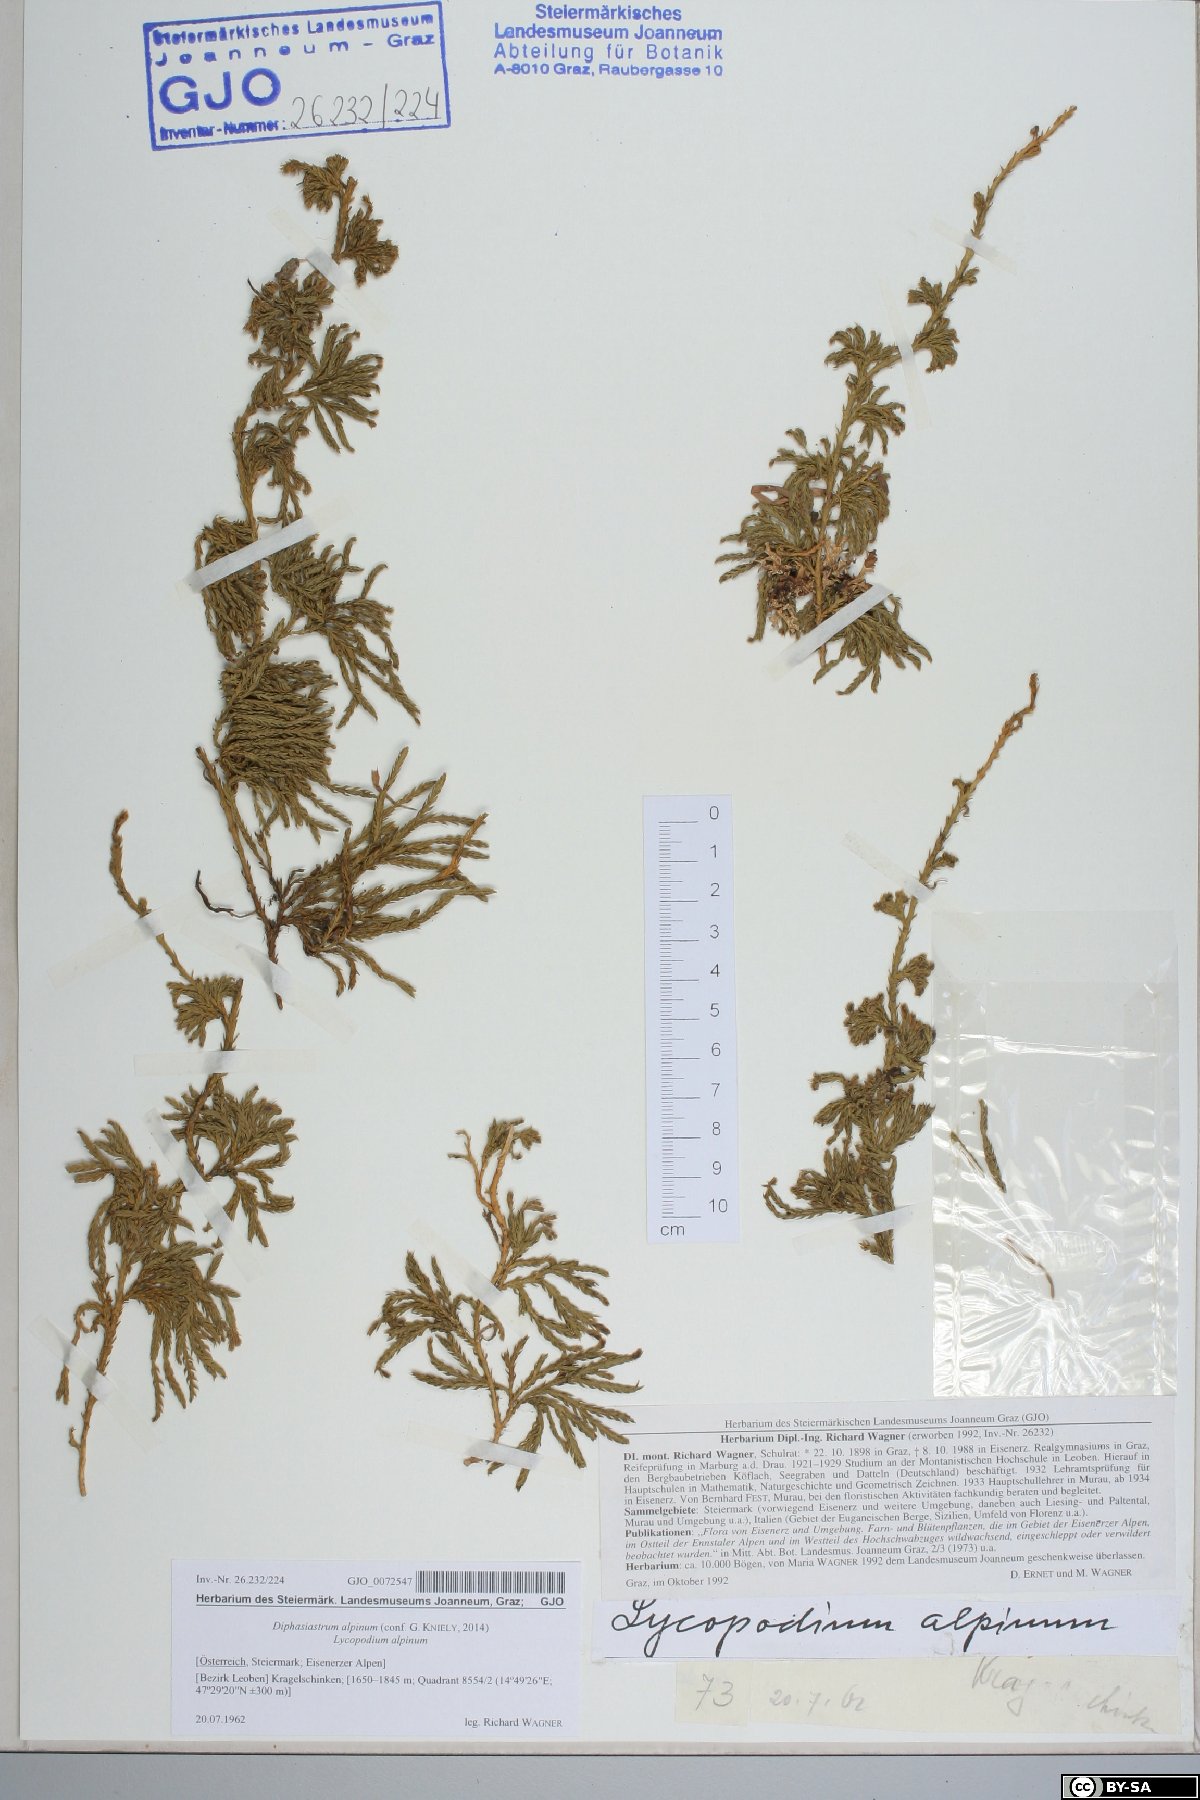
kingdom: Plantae
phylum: Tracheophyta
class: Lycopodiopsida
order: Lycopodiales
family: Lycopodiaceae
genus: Diphasiastrum
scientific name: Diphasiastrum alpinum
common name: Alpine clubmoss
